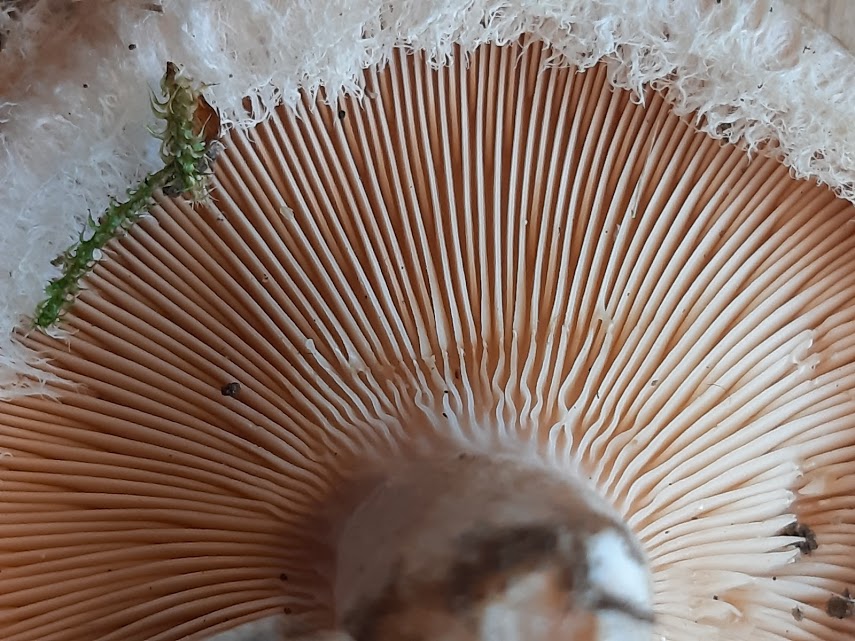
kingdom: Fungi
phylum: Basidiomycota
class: Agaricomycetes
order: Russulales
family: Russulaceae
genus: Lactarius
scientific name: Lactarius torminosus
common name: skægget mælkehat
